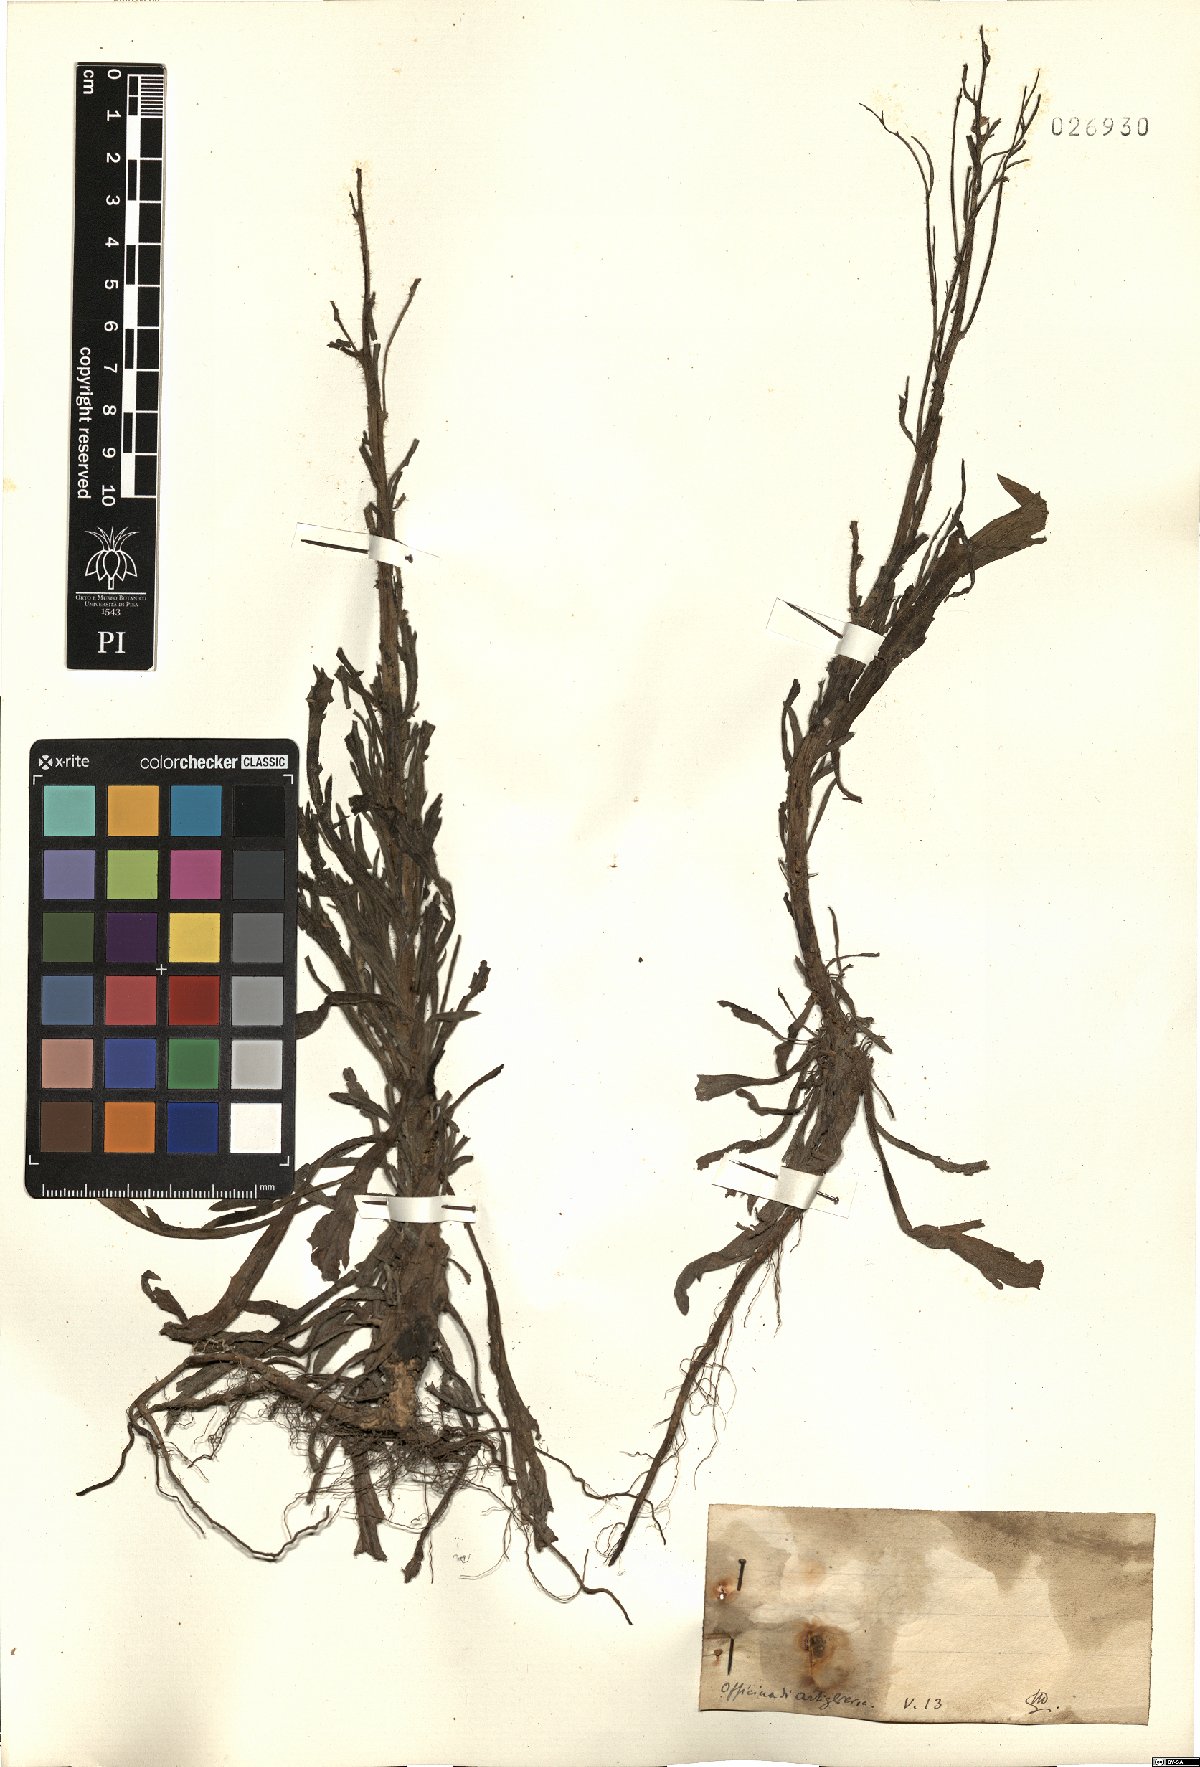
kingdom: Plantae
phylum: Tracheophyta
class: Magnoliopsida
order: Asterales
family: Asteraceae
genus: Erigeron
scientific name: Erigeron
